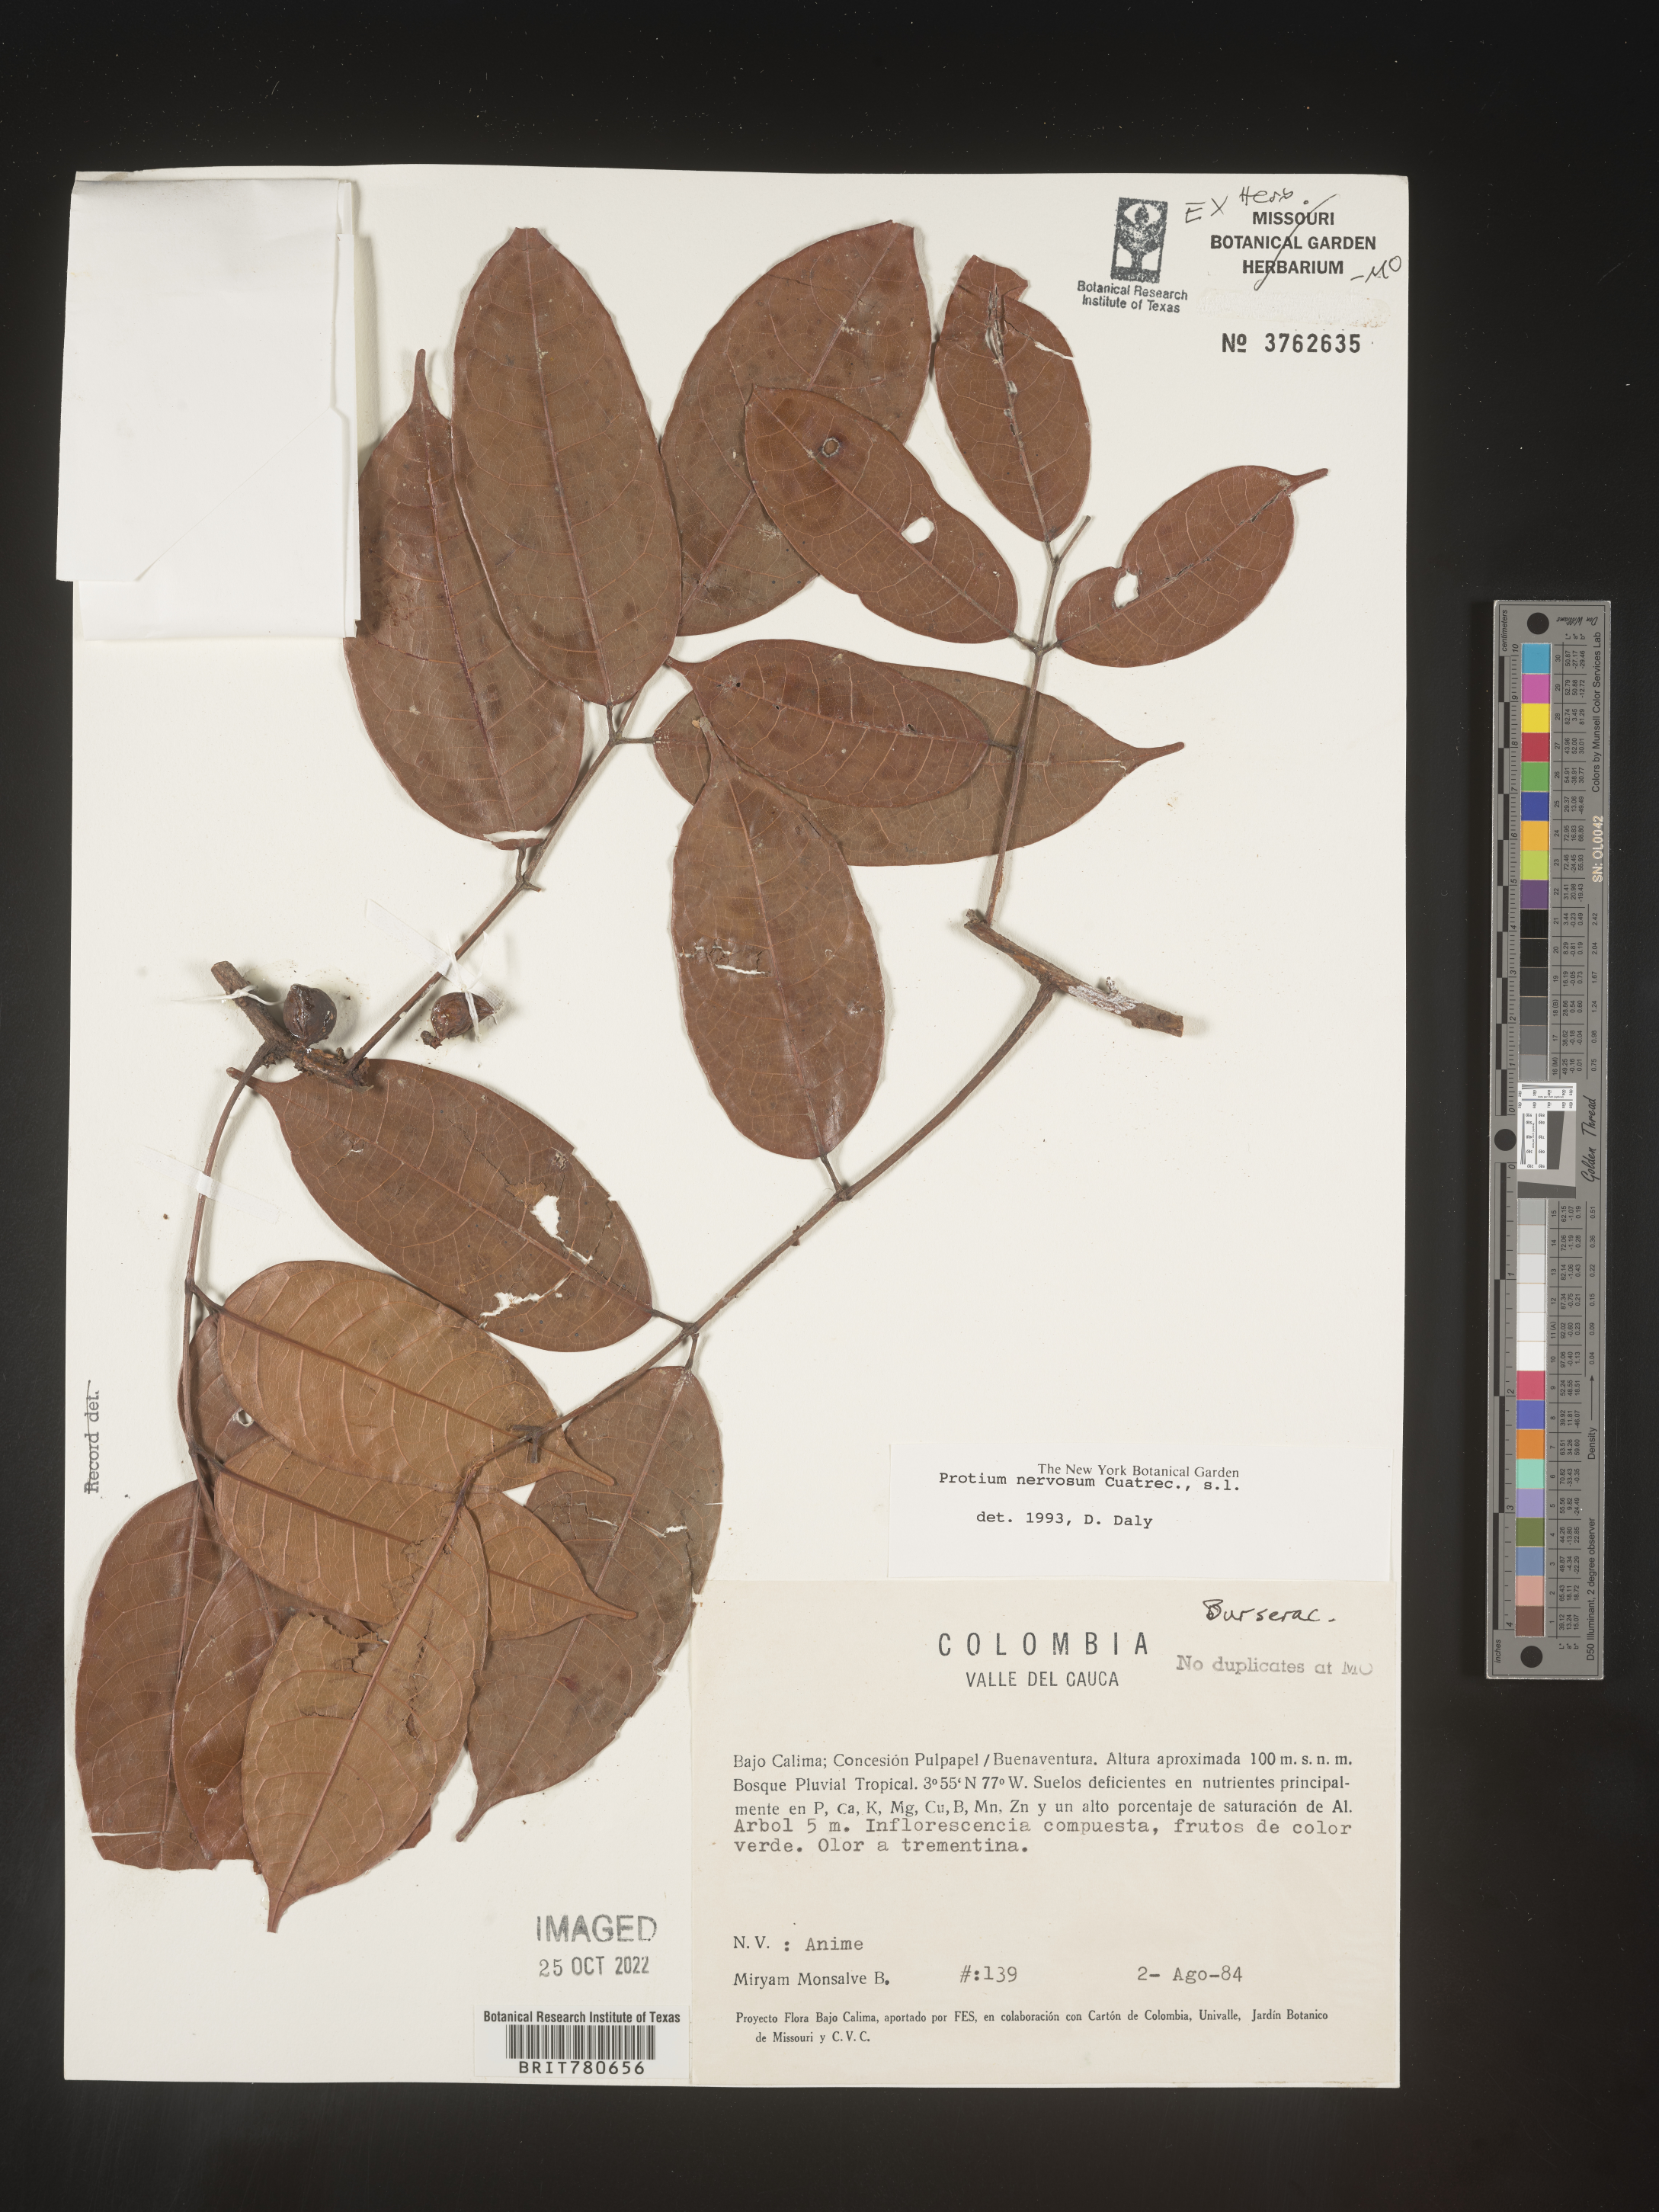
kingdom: Plantae
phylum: Tracheophyta
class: Magnoliopsida
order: Sapindales
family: Burseraceae
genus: Protium
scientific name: Protium
